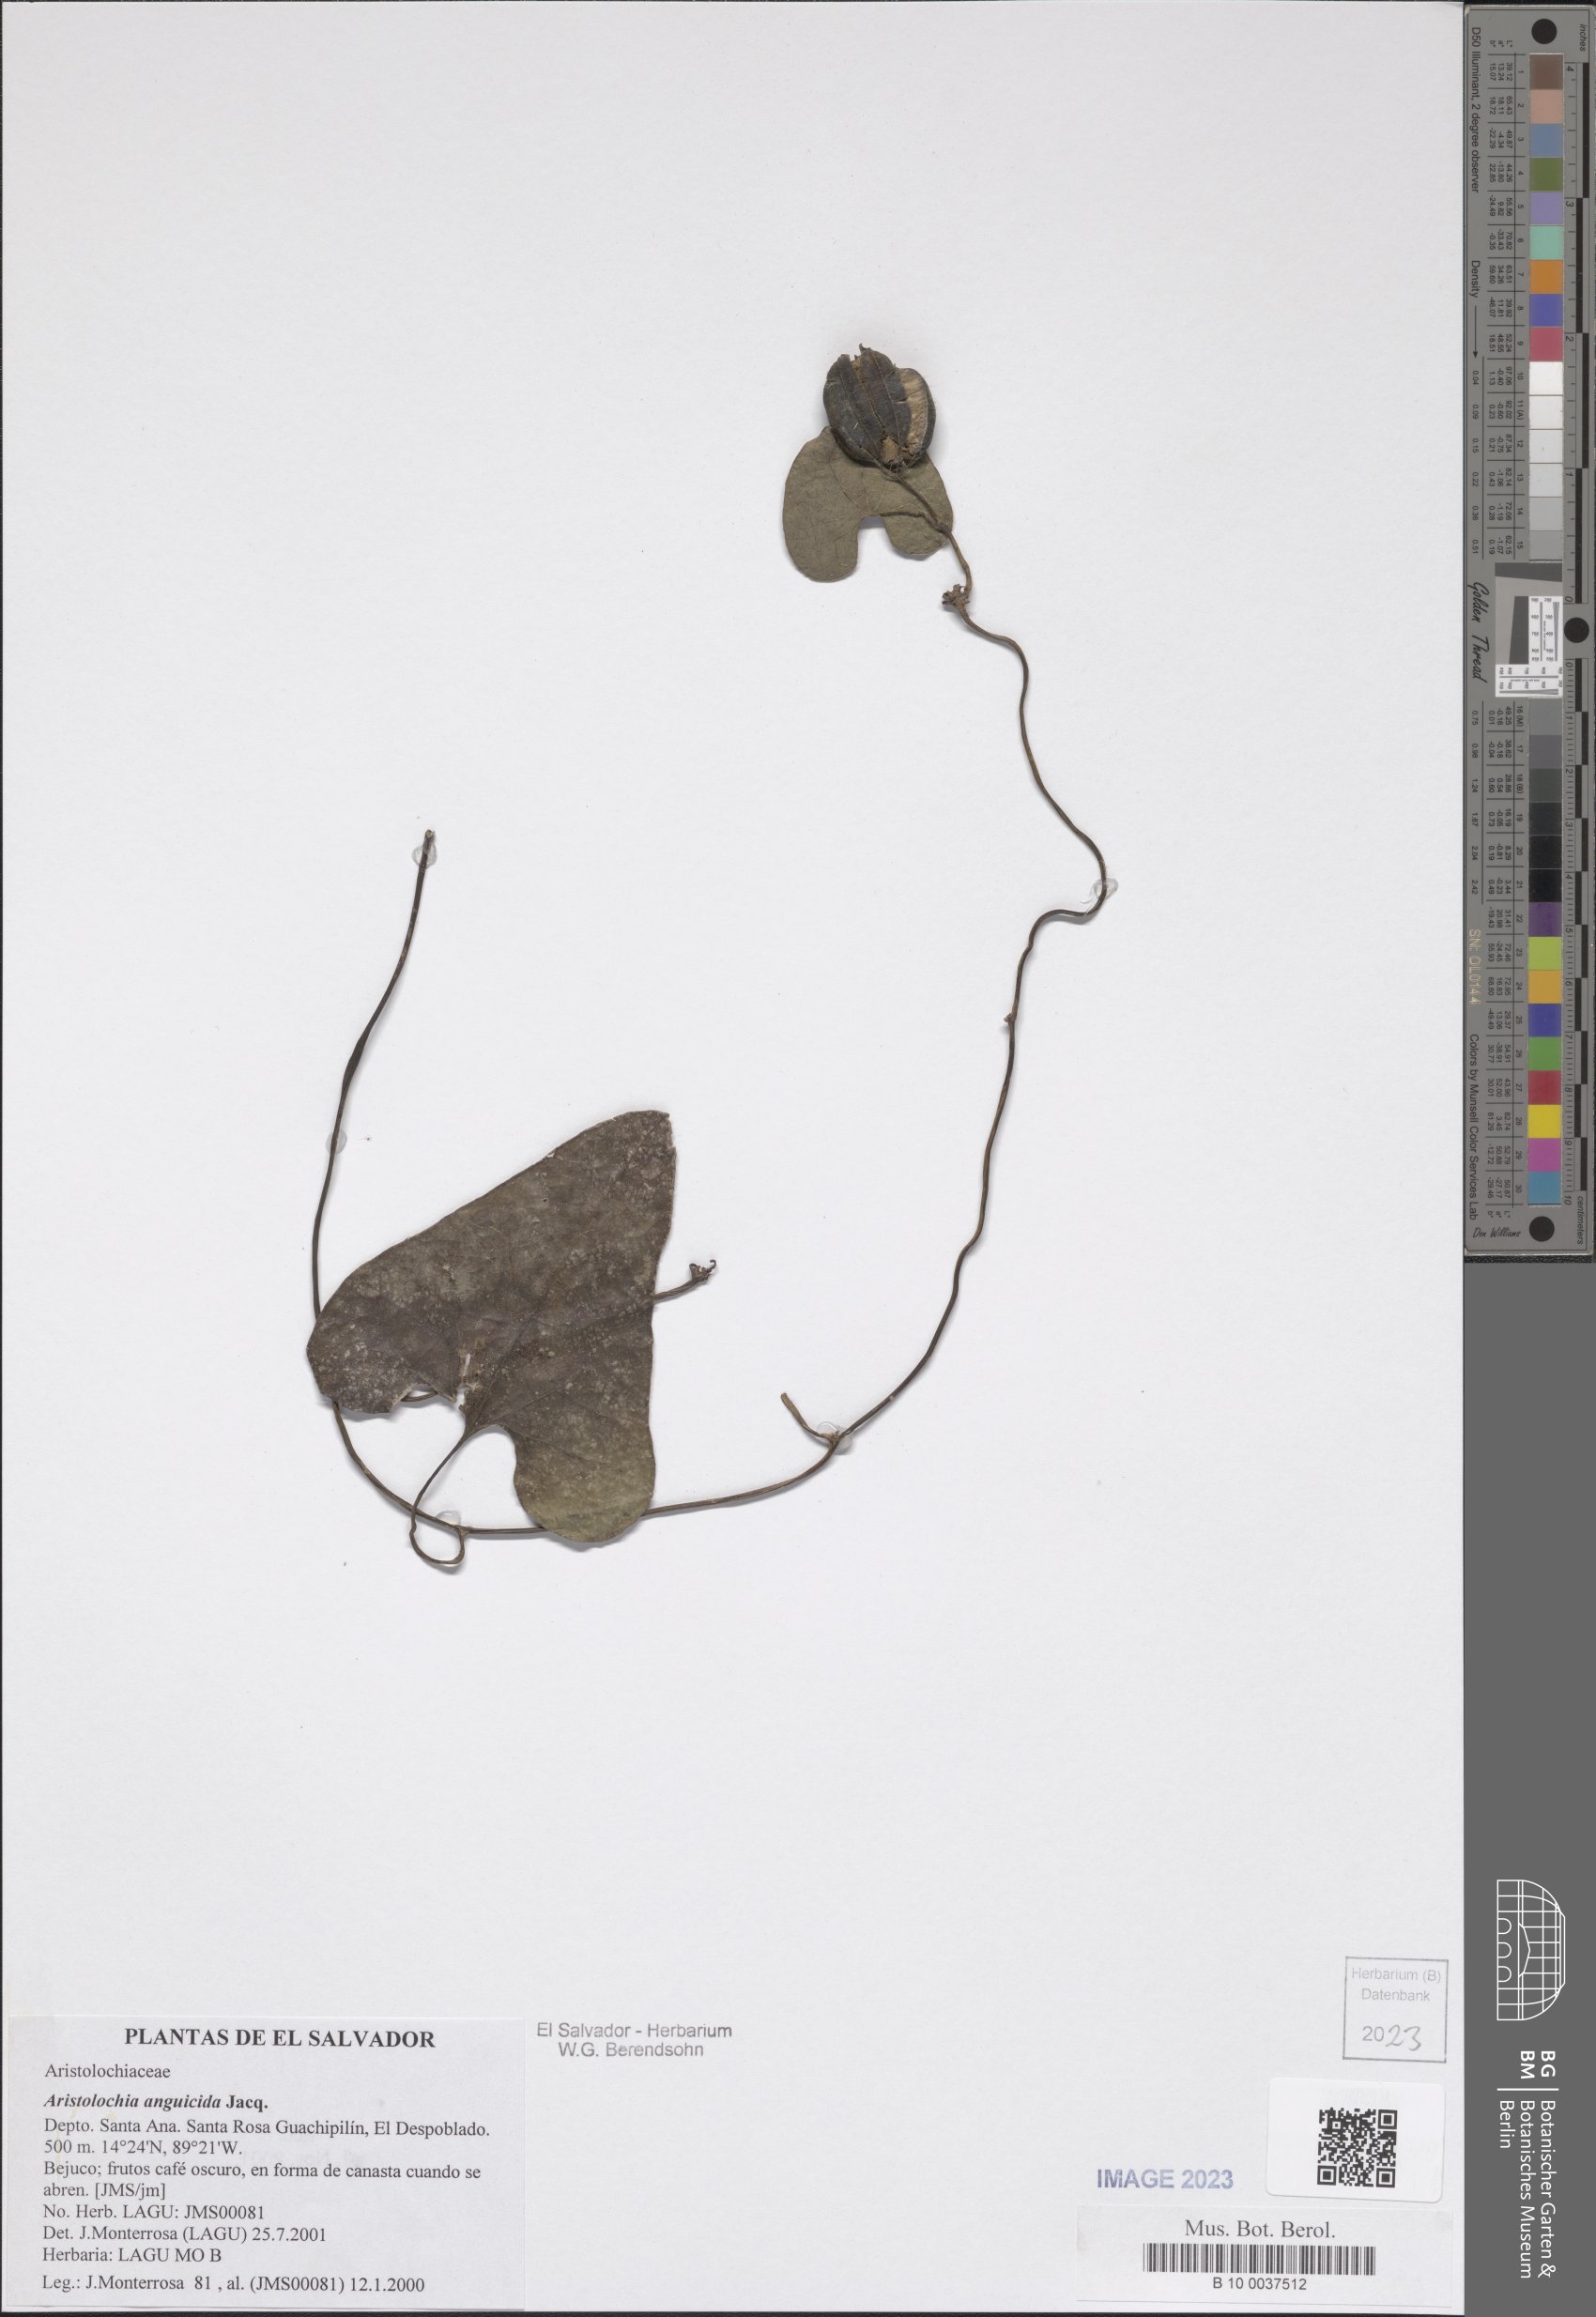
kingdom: Plantae
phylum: Tracheophyta
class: Magnoliopsida
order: Piperales
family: Aristolochiaceae
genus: Aristolochia
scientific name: Aristolochia anguicida
